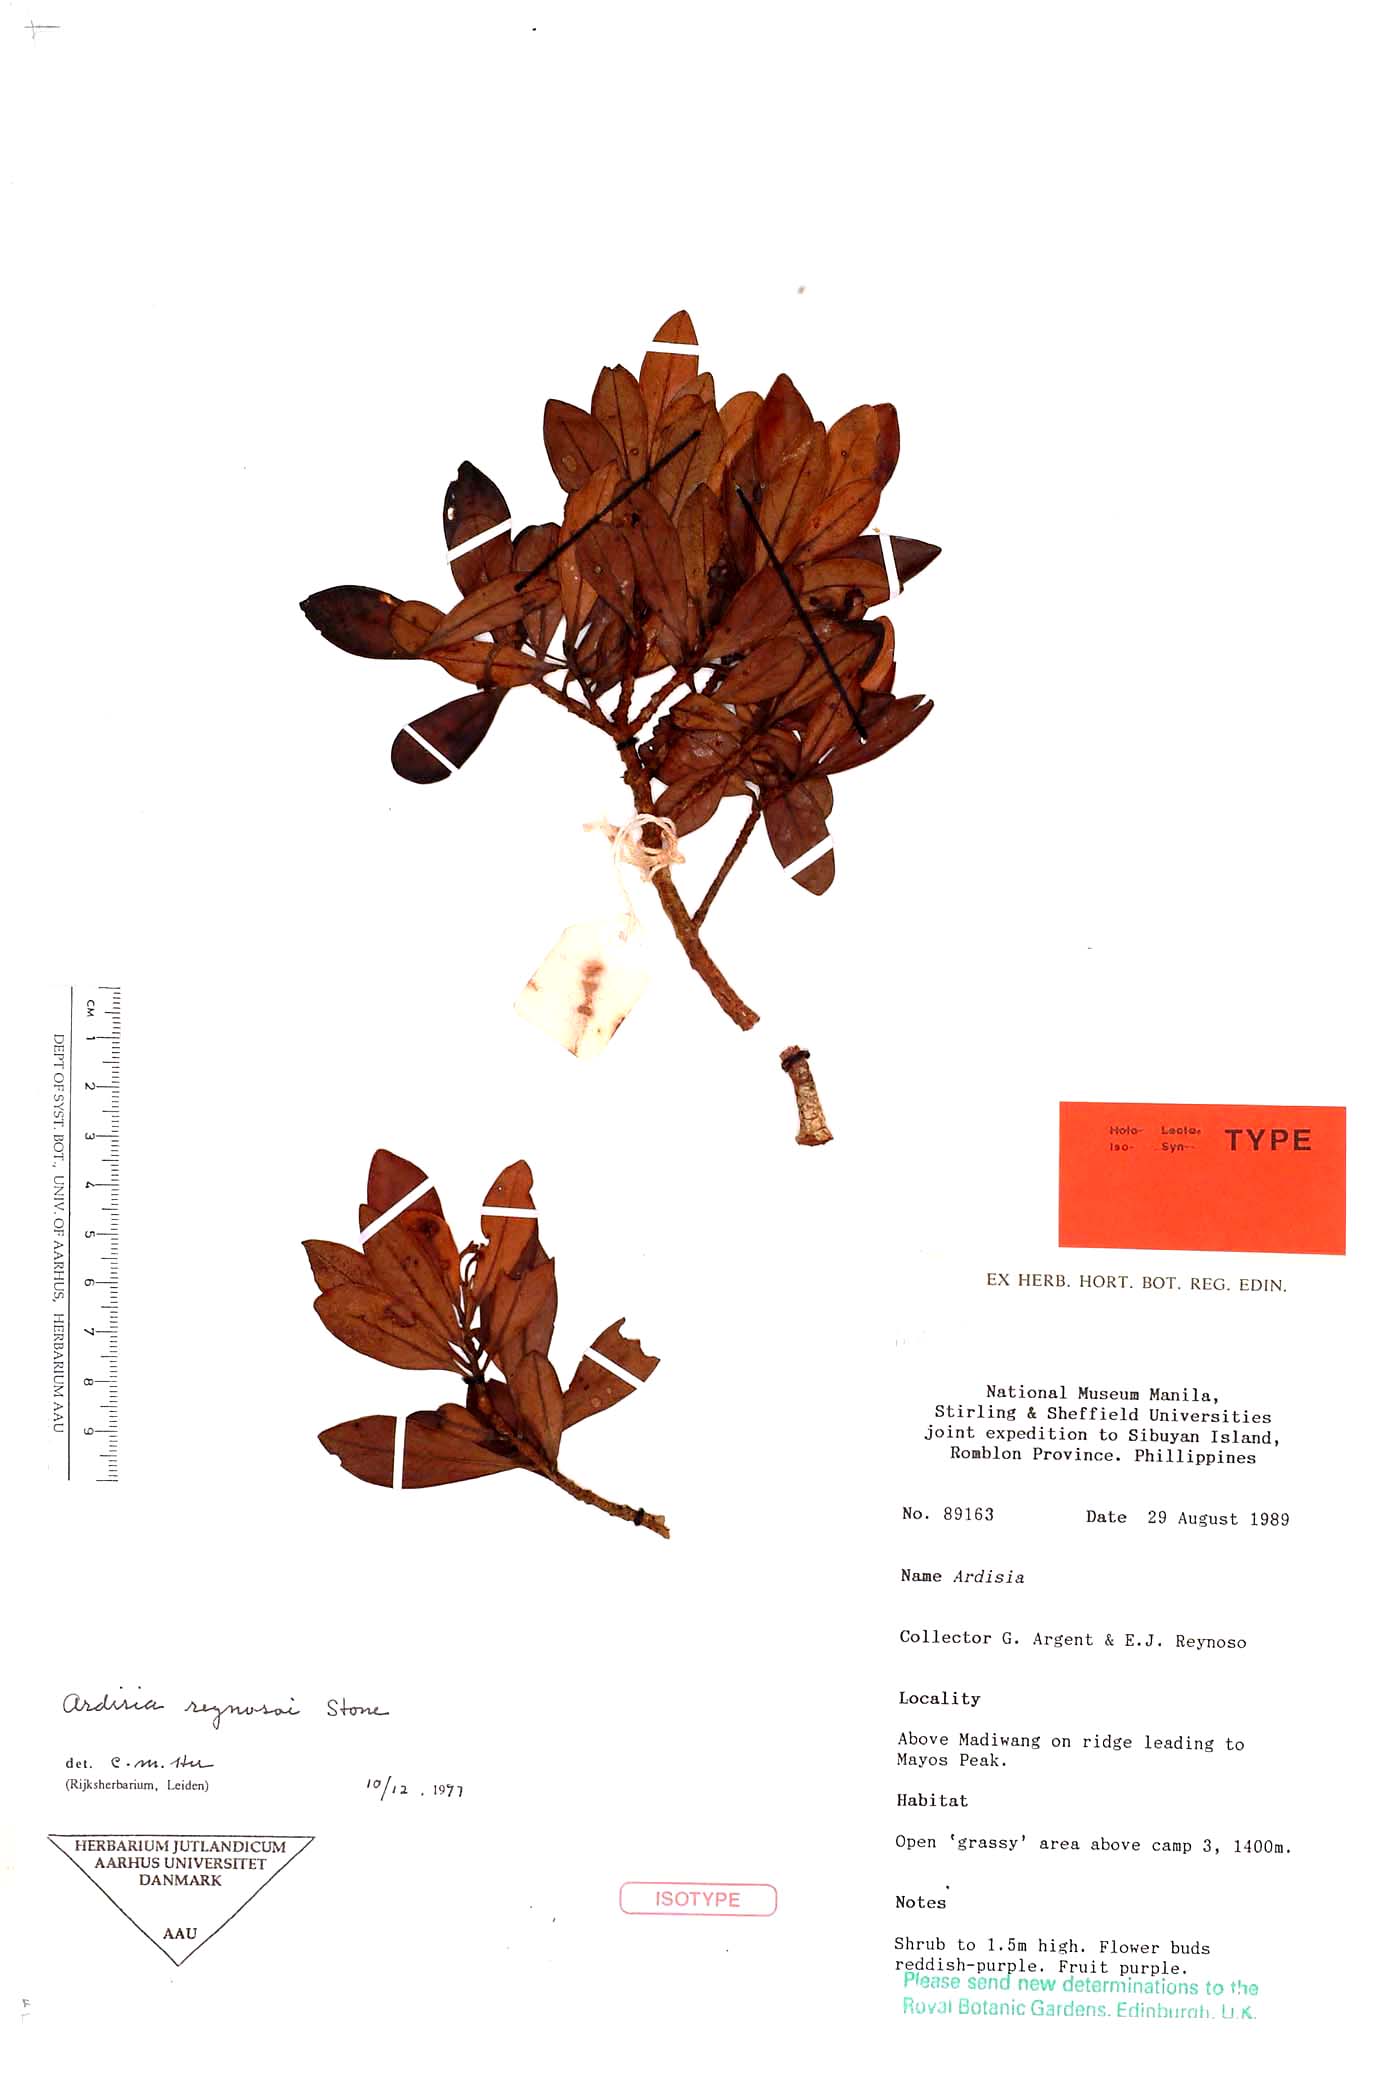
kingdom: Plantae
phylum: Tracheophyta
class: Magnoliopsida
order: Ericales
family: Primulaceae
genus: Ardisia
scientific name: Ardisia reynosoi
